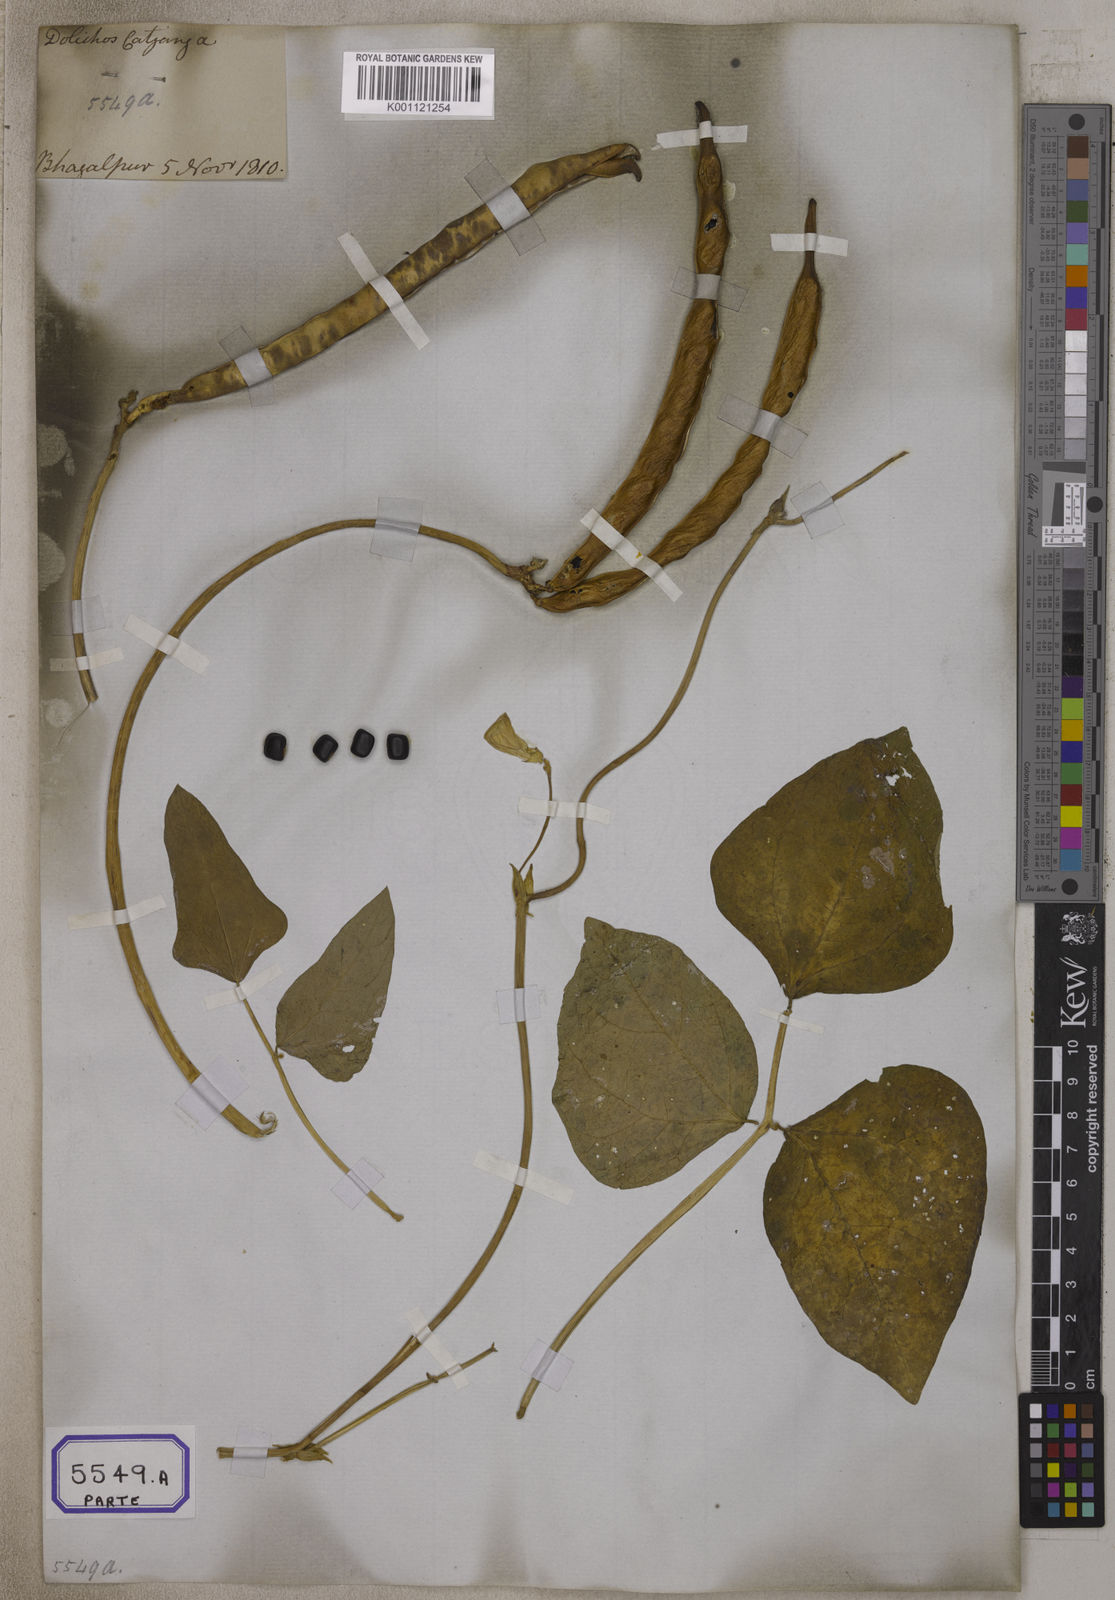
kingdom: Plantae
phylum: Tracheophyta
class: Magnoliopsida
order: Fabales
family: Fabaceae
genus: Vigna
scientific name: Vigna unguiculata
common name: Cowpea
